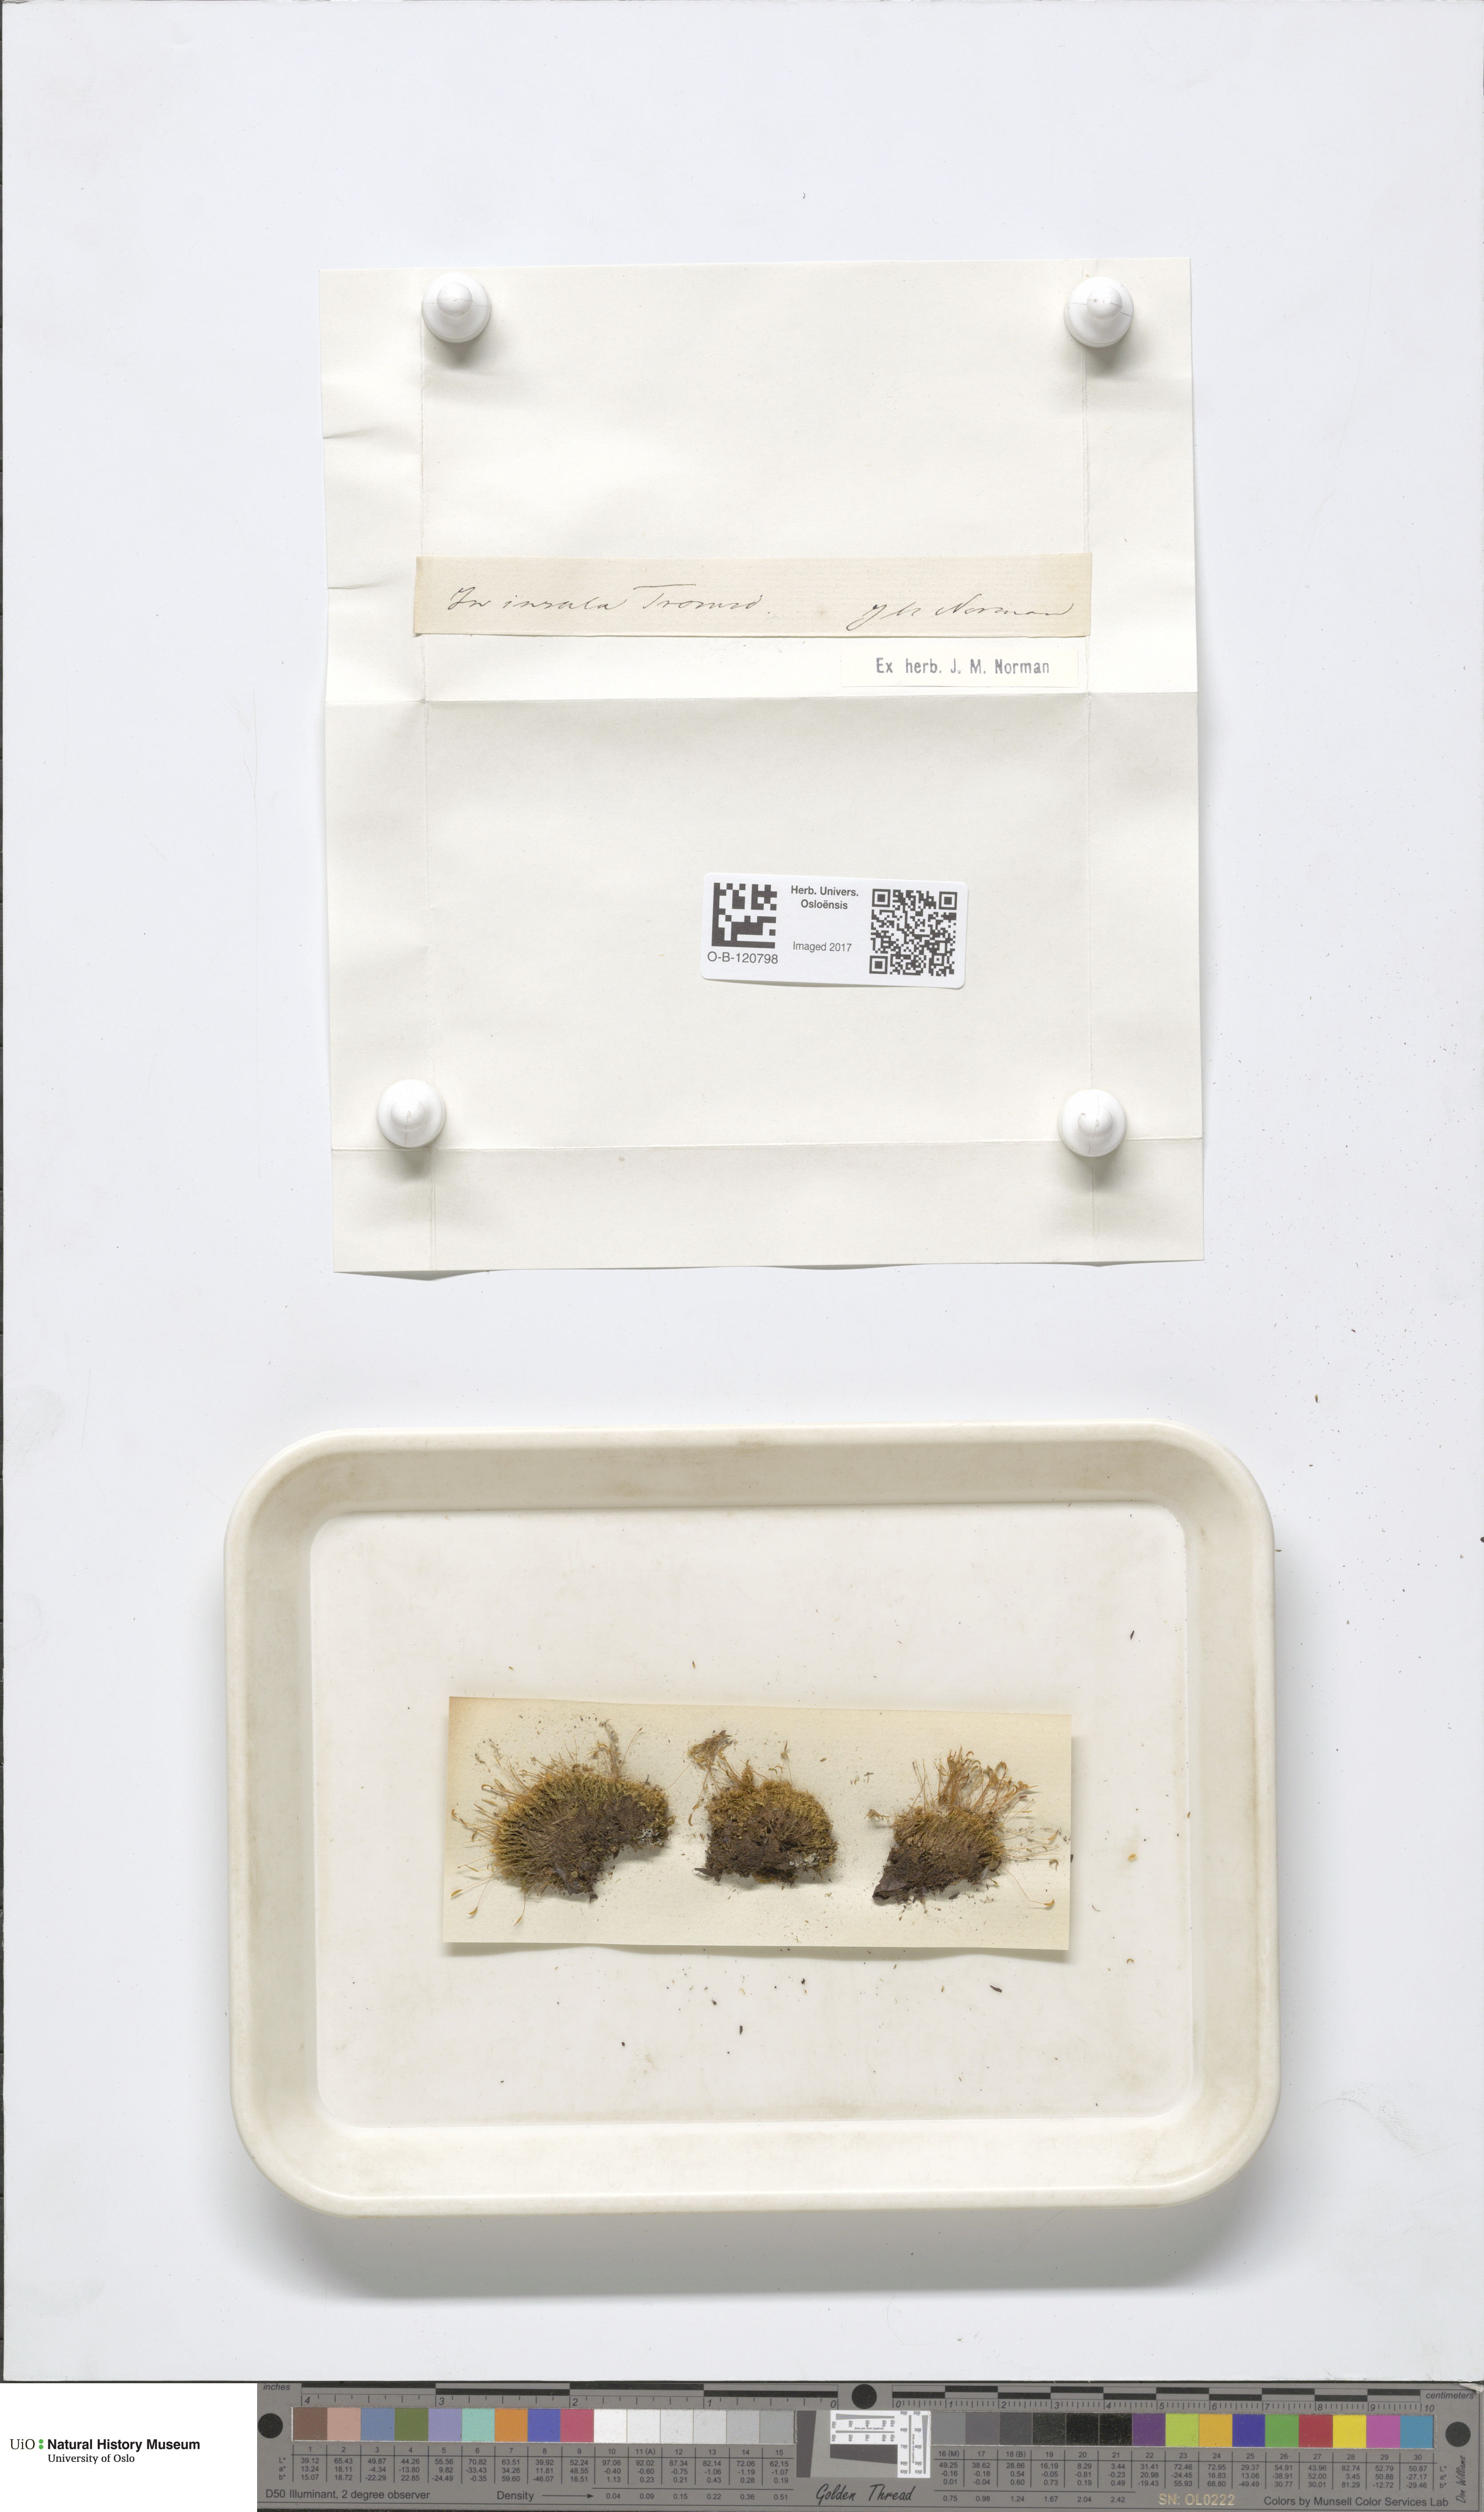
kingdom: Plantae
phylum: Bryophyta
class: Bryopsida
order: Dicranales
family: Rhabdoweisiaceae
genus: Cynodontium
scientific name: Cynodontium
